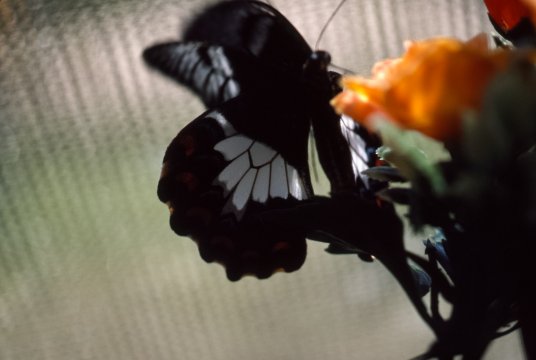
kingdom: Animalia
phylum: Arthropoda
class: Insecta
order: Lepidoptera
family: Papilionidae
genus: Papilio
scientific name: Papilio aegeus
